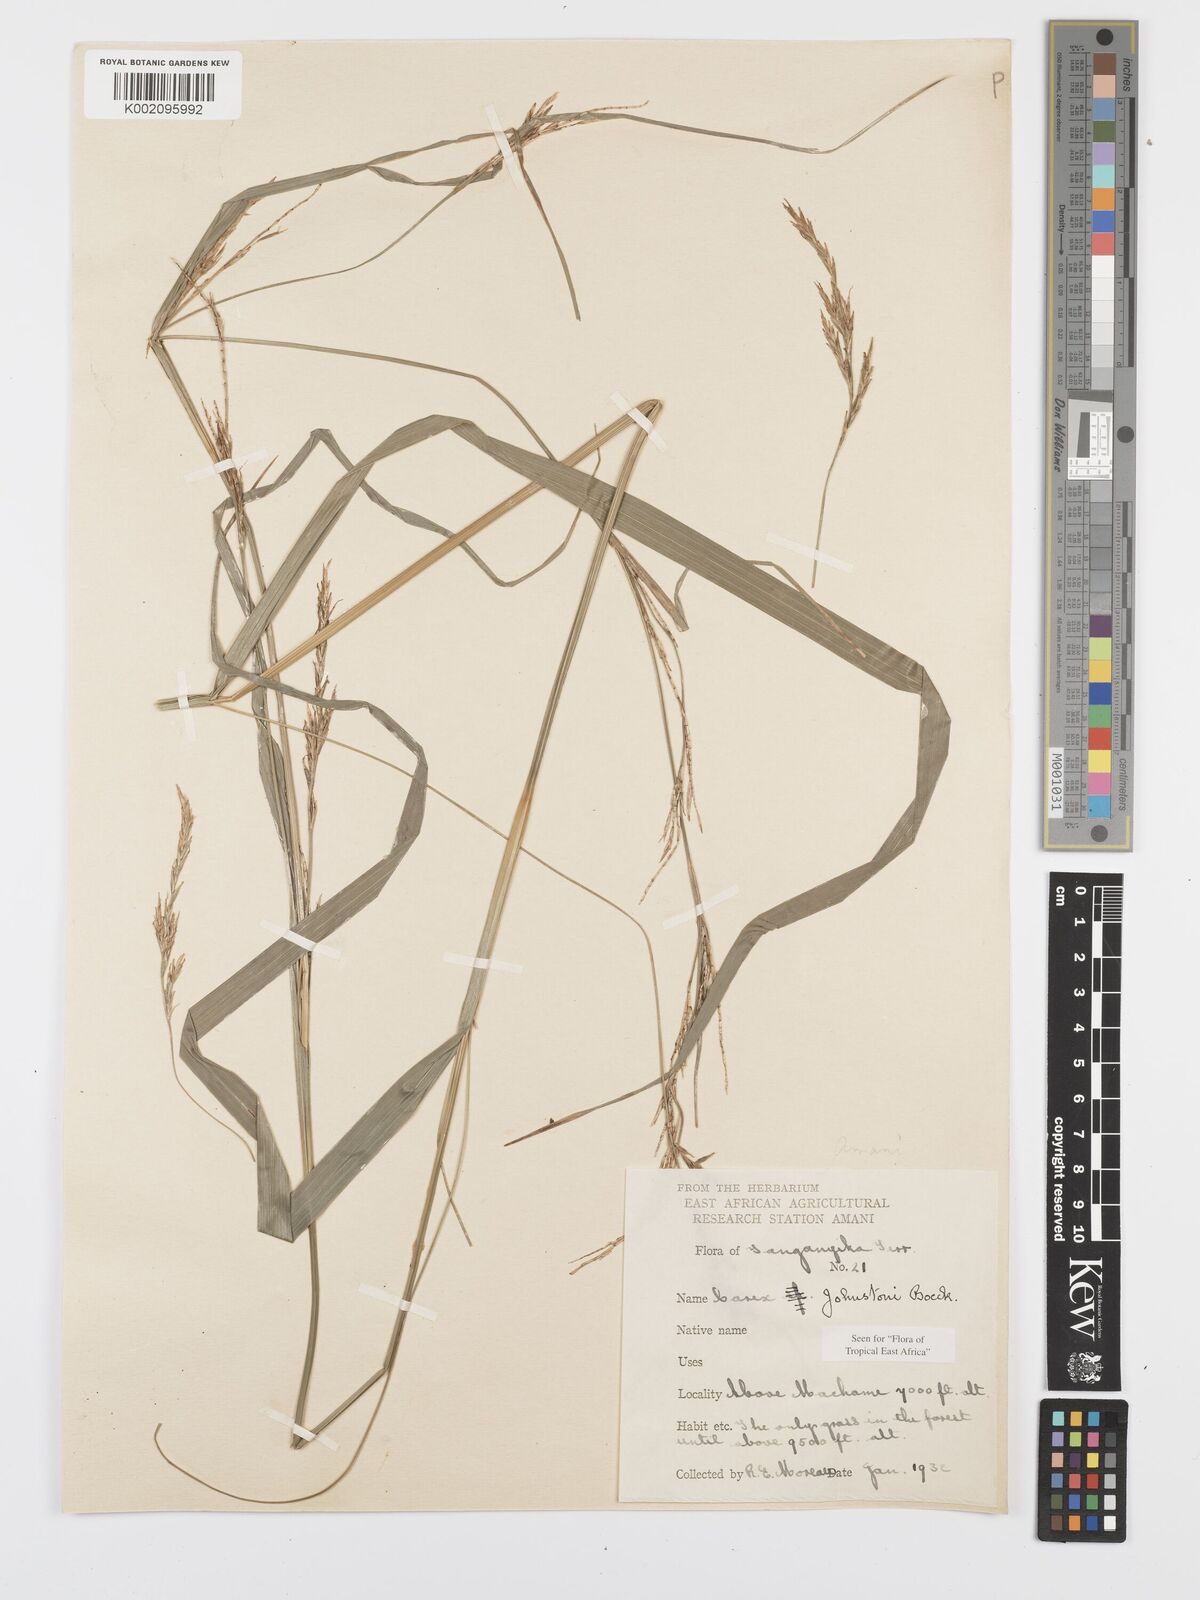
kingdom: Plantae
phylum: Tracheophyta
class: Liliopsida
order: Poales
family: Cyperaceae
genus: Carex
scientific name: Carex johnstonii
